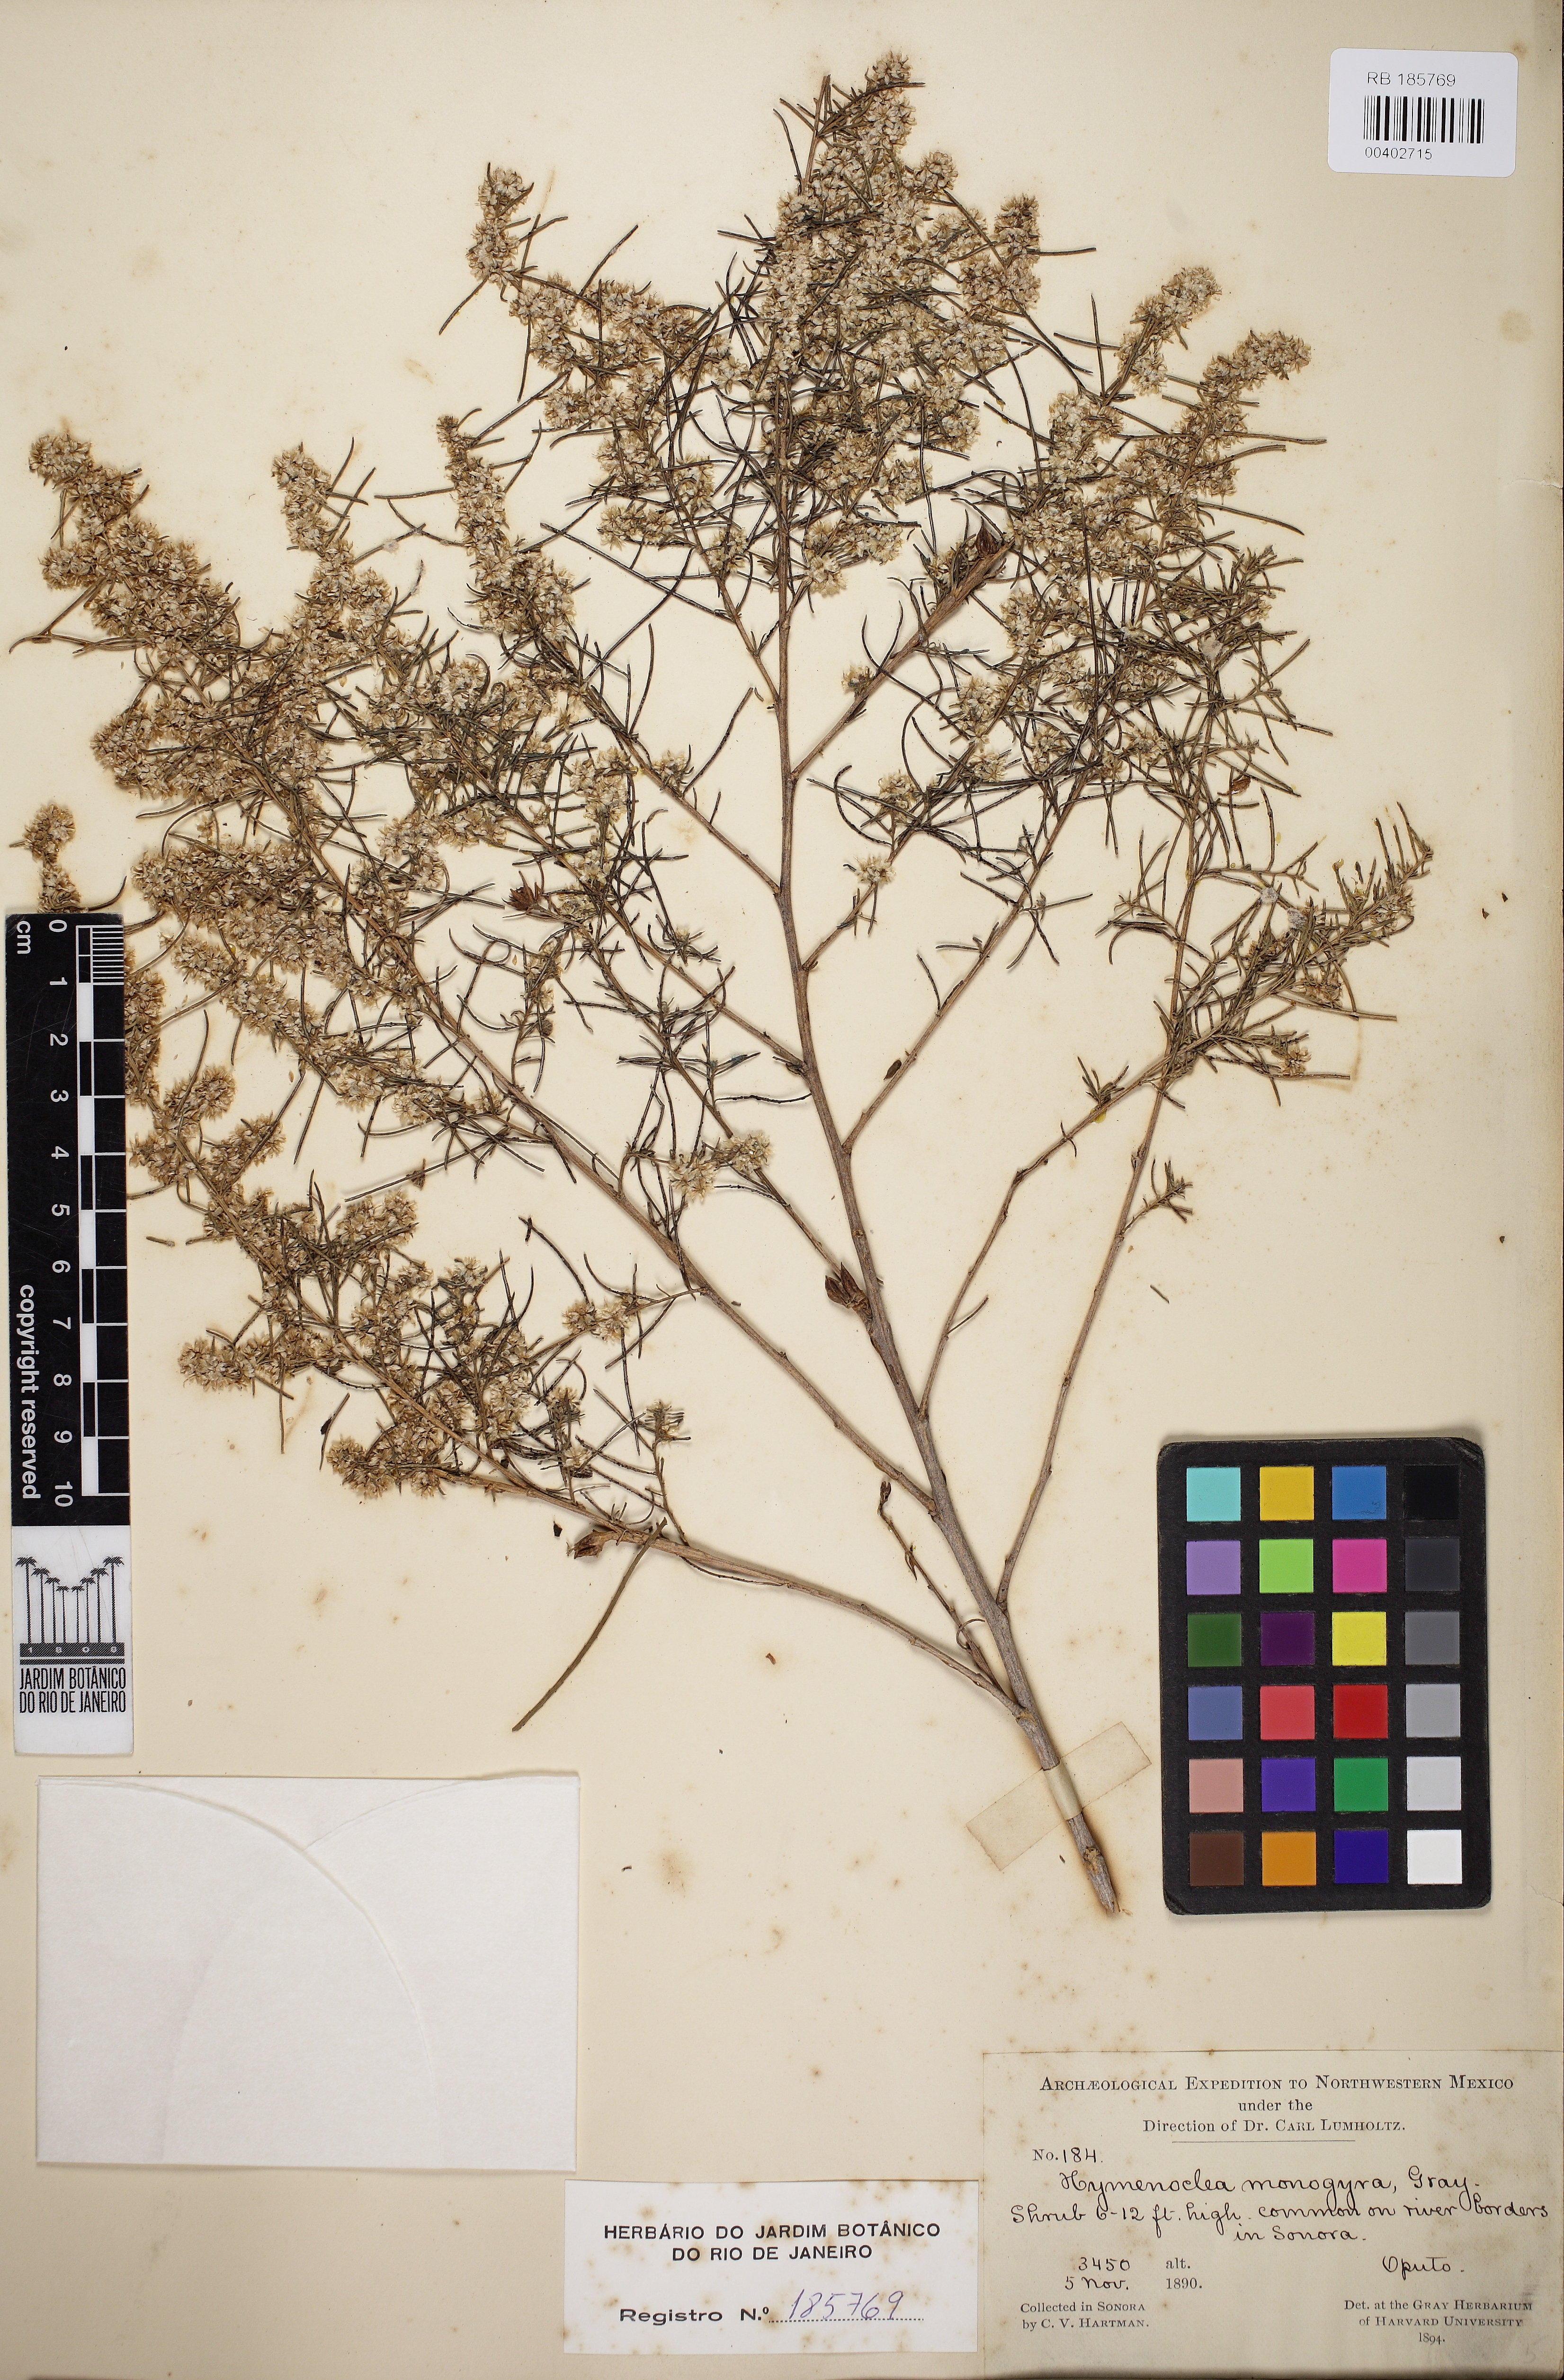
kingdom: Plantae
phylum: Tracheophyta
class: Magnoliopsida
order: Asterales
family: Asteraceae
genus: Ambrosia
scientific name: Ambrosia monogyra
